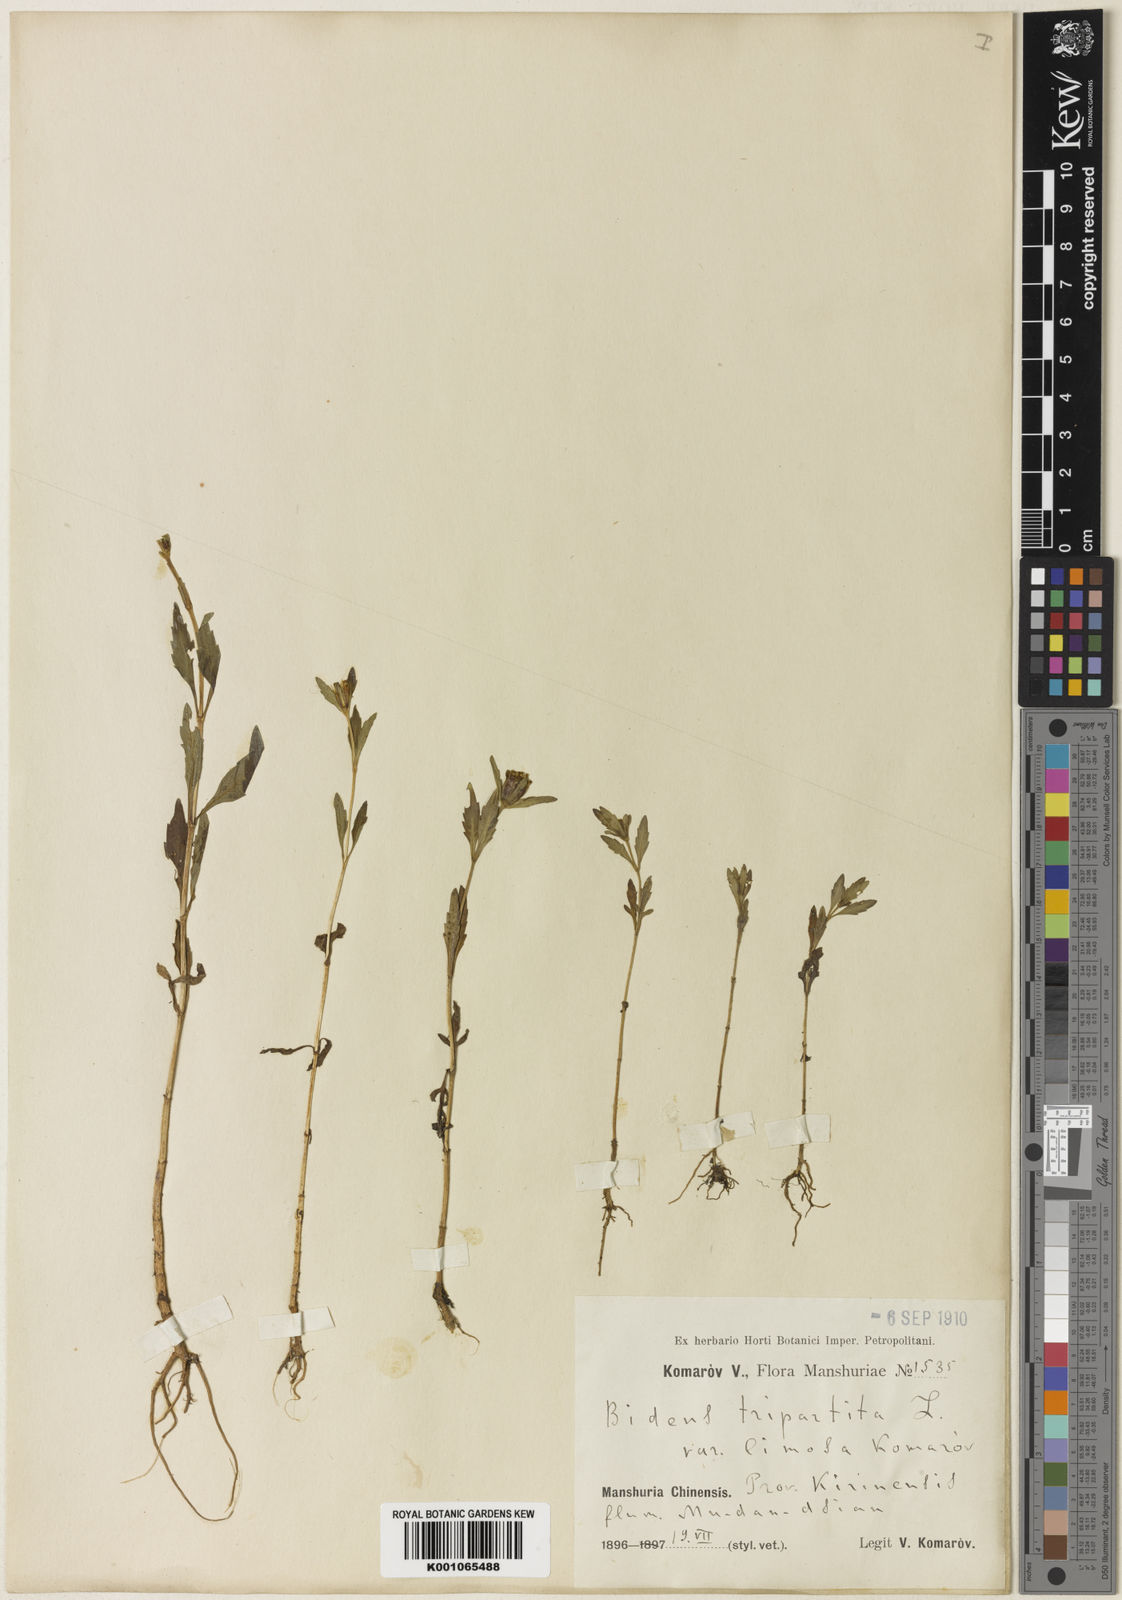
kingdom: Plantae
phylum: Tracheophyta
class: Magnoliopsida
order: Asterales
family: Asteraceae
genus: Bidens
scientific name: Bidens
